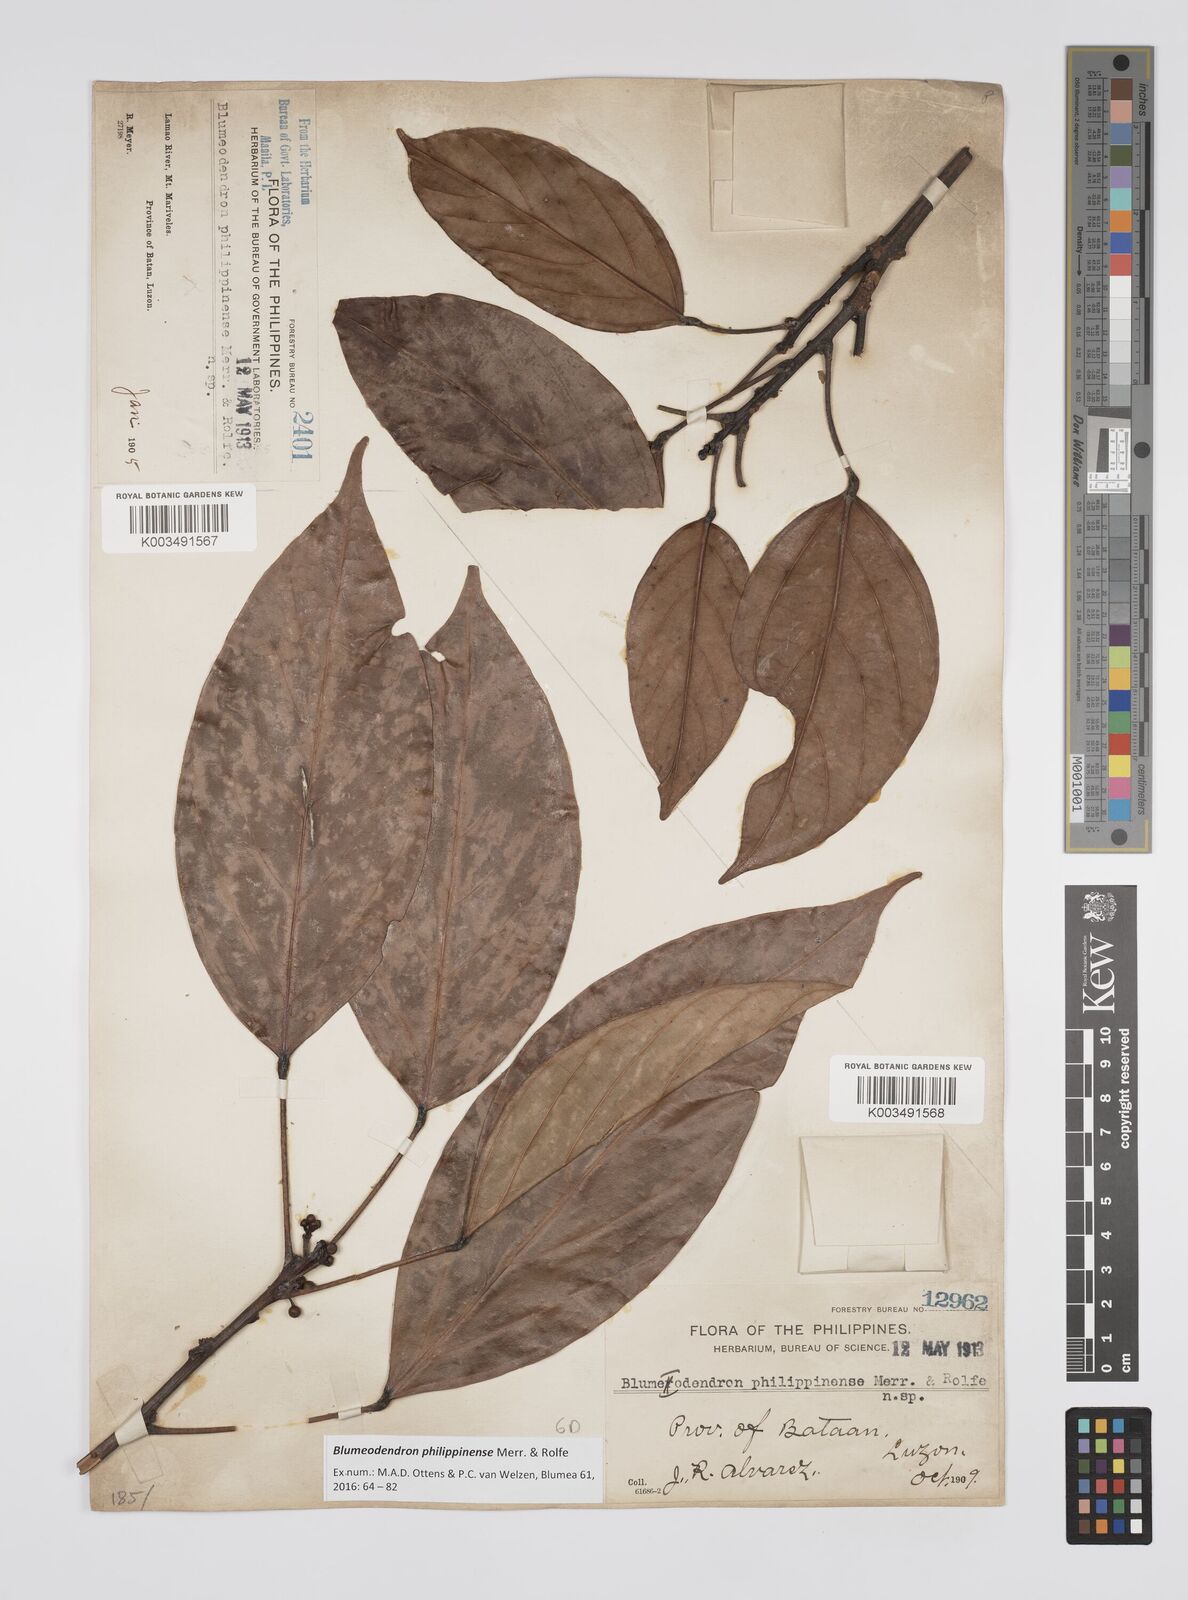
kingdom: Plantae
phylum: Tracheophyta
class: Magnoliopsida
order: Malpighiales
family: Euphorbiaceae
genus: Blumeodendron
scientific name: Blumeodendron philippinense
